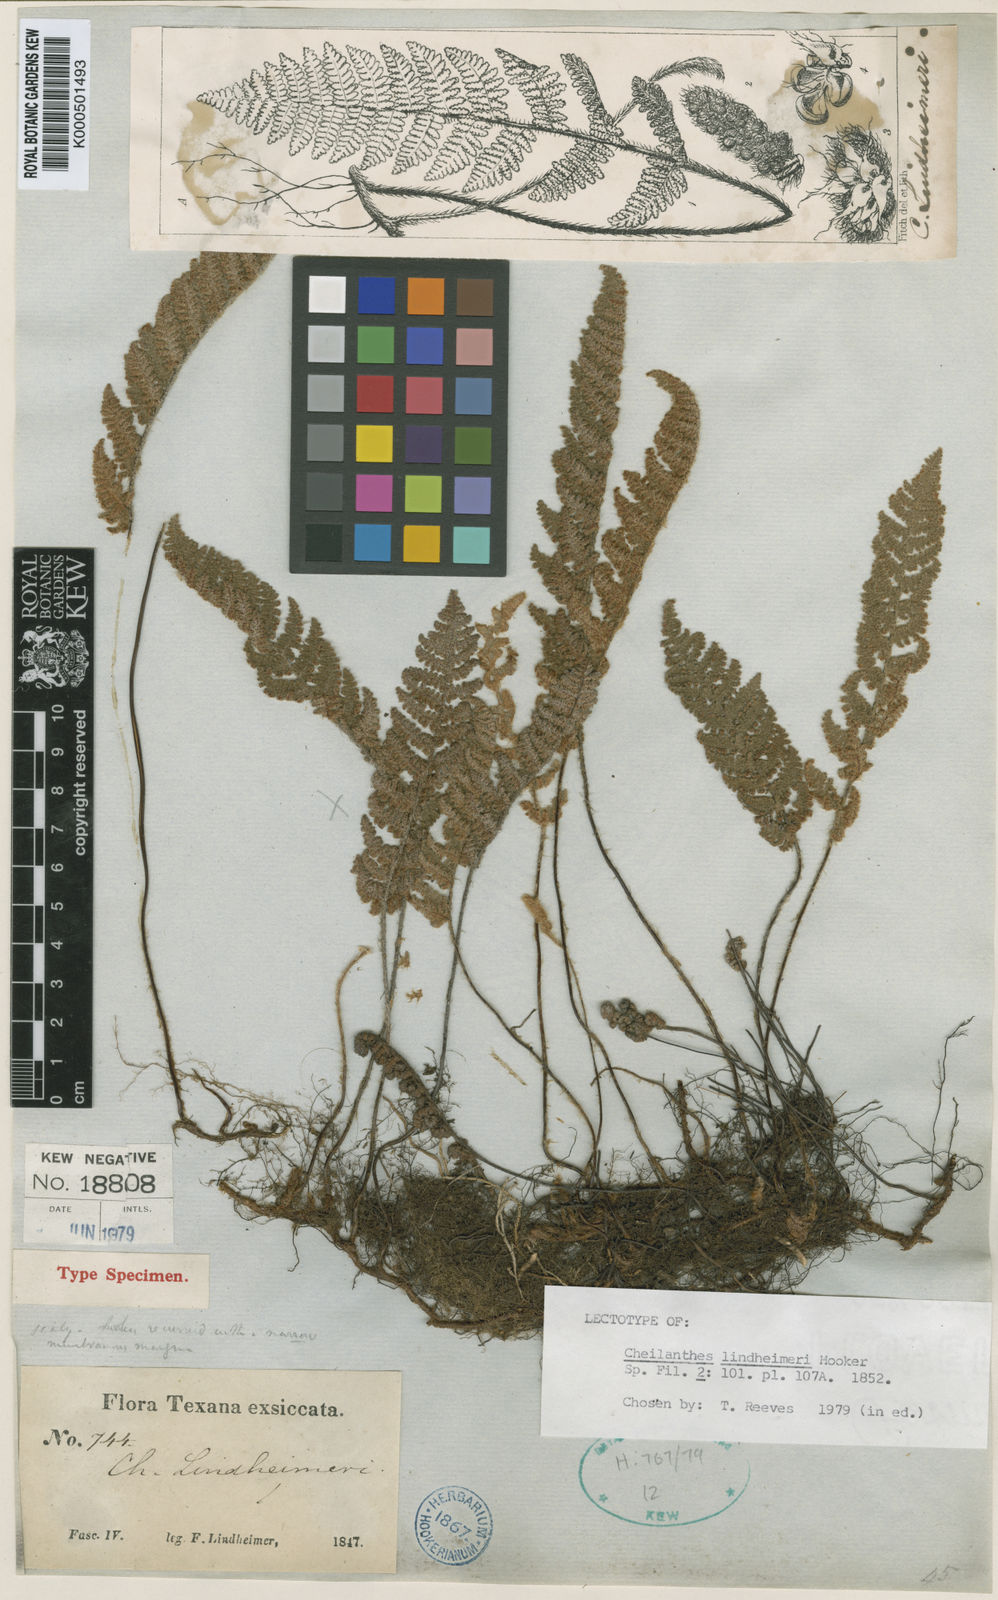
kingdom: Plantae
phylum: Tracheophyta
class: Polypodiopsida
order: Polypodiales
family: Pteridaceae
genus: Myriopteris
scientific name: Myriopteris lindheimeri
